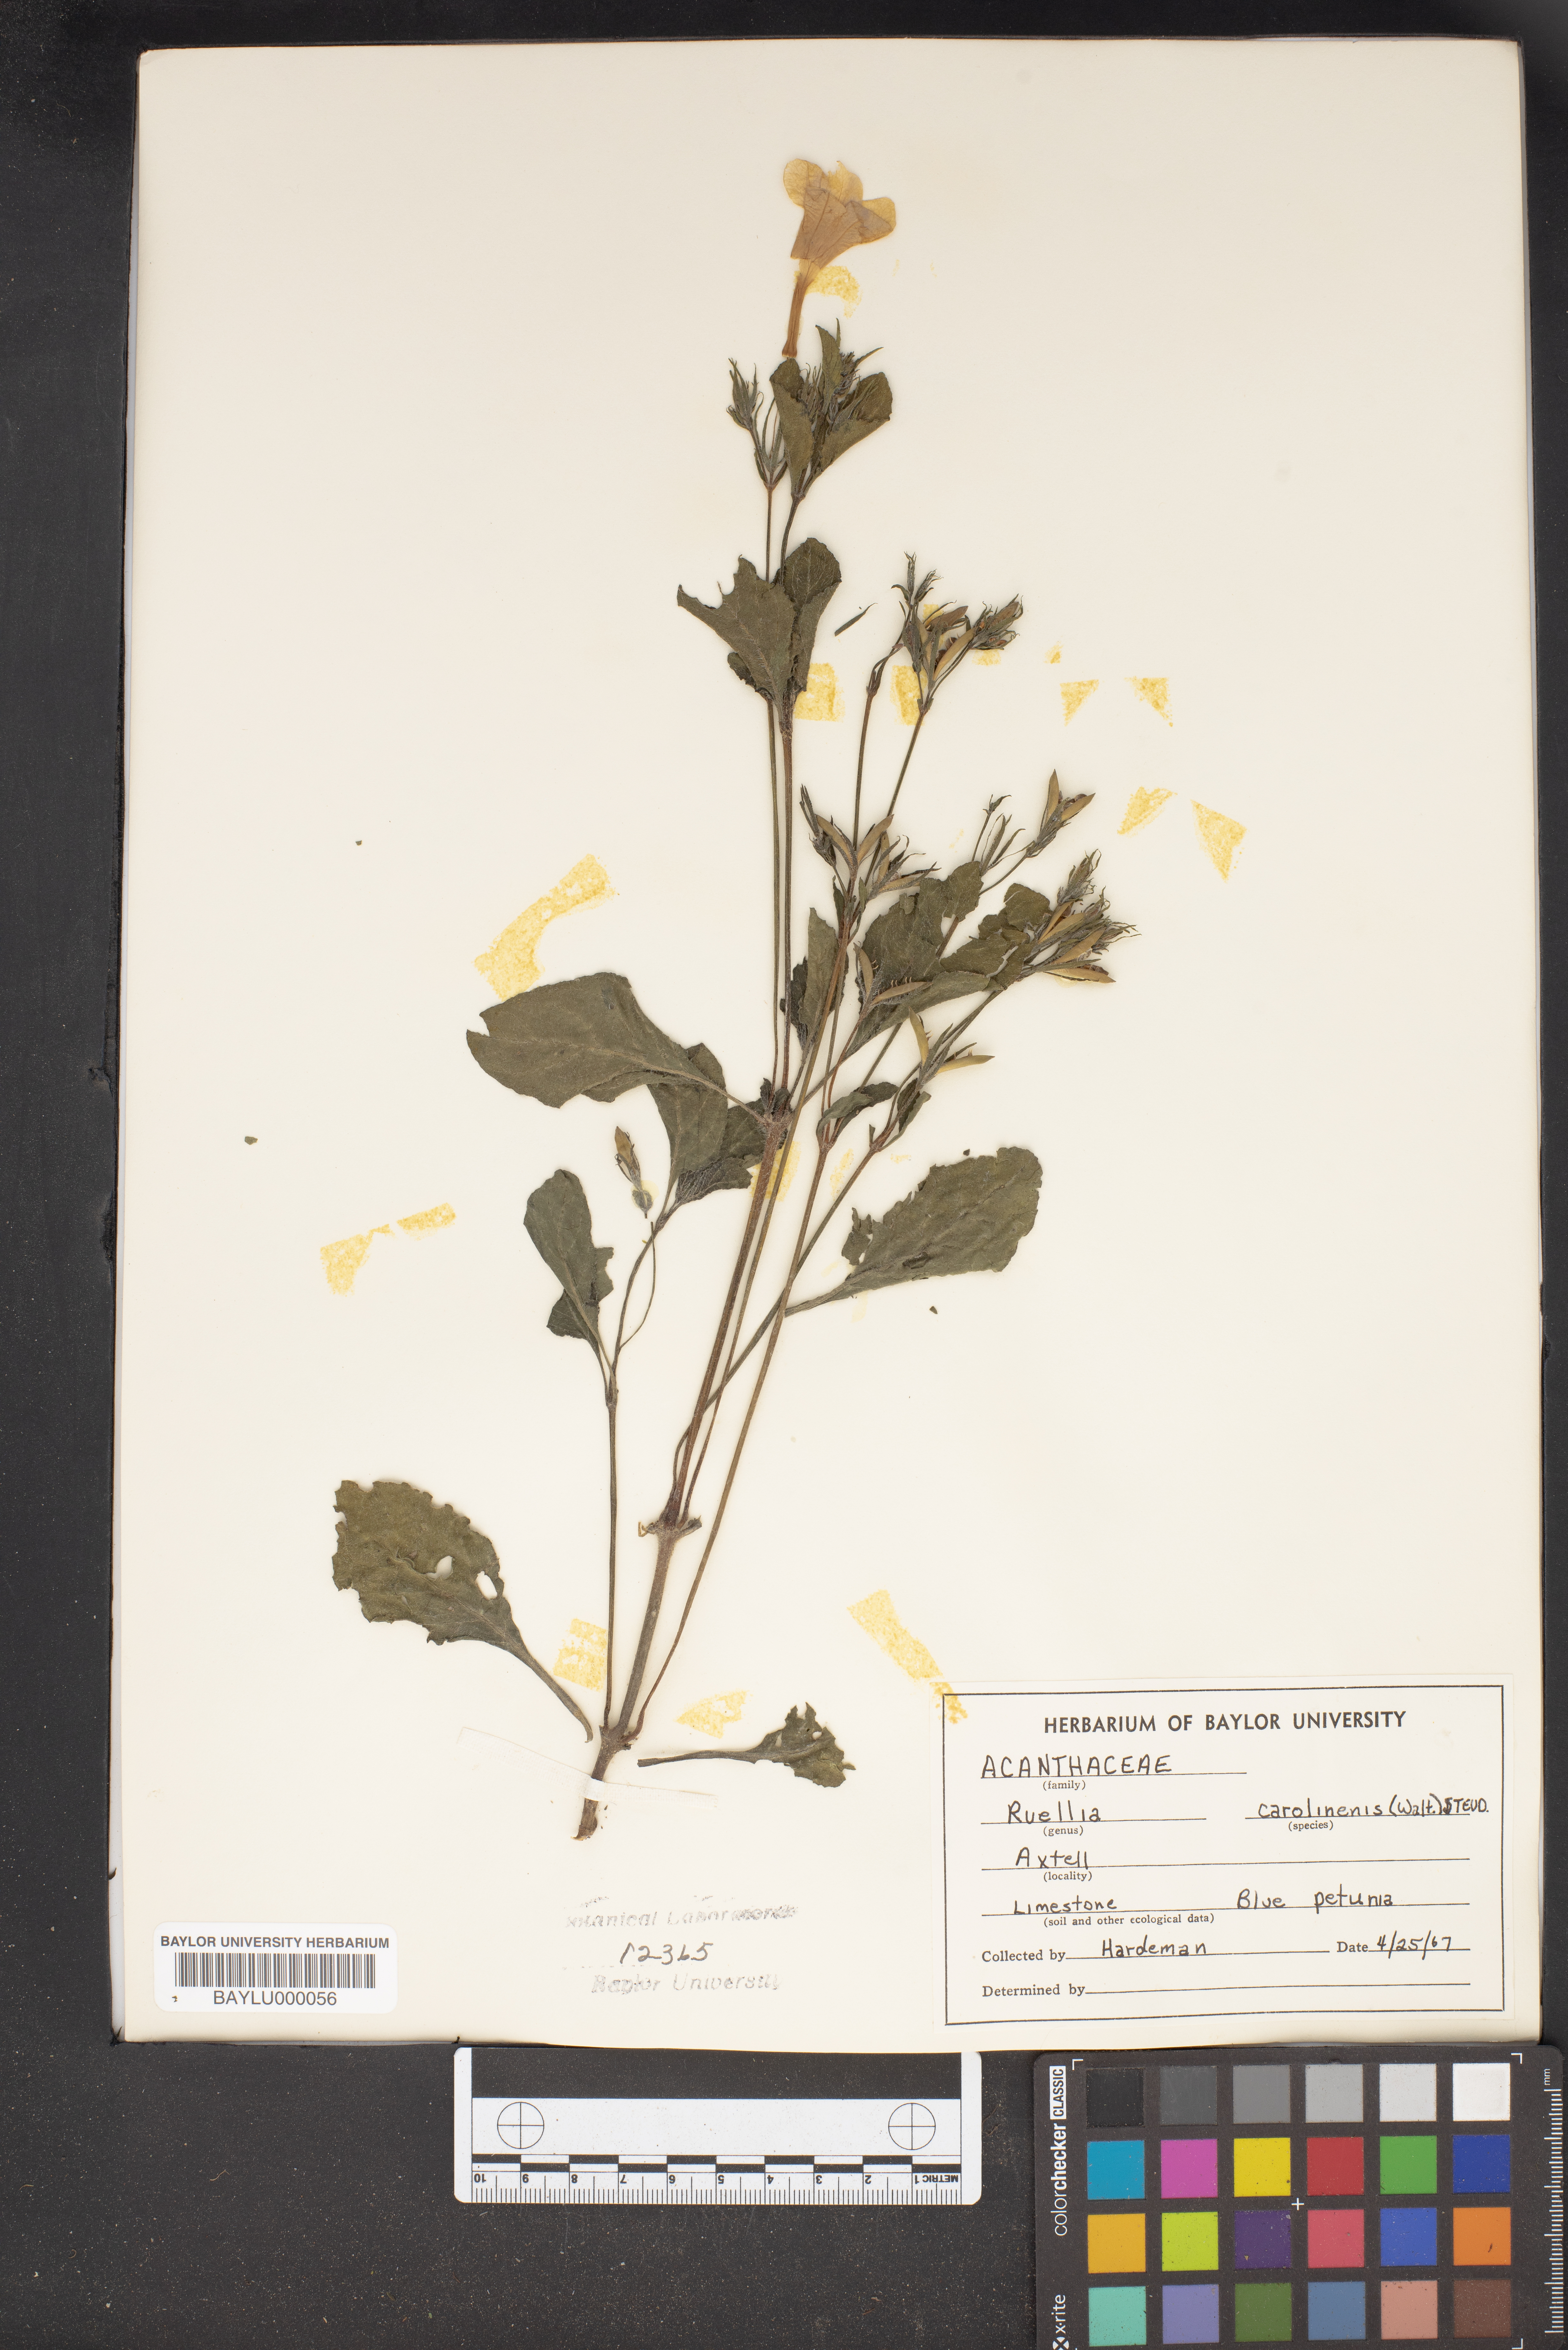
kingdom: Plantae
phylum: Tracheophyta
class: Magnoliopsida
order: Lamiales
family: Acanthaceae
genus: Ruellia
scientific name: Ruellia caroliniensis
